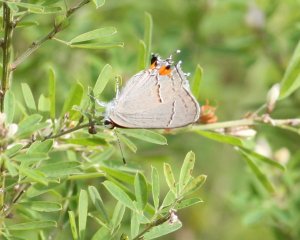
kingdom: Animalia
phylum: Arthropoda
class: Insecta
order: Lepidoptera
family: Lycaenidae
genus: Strymon
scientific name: Strymon melinus
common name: Gray Hairstreak
